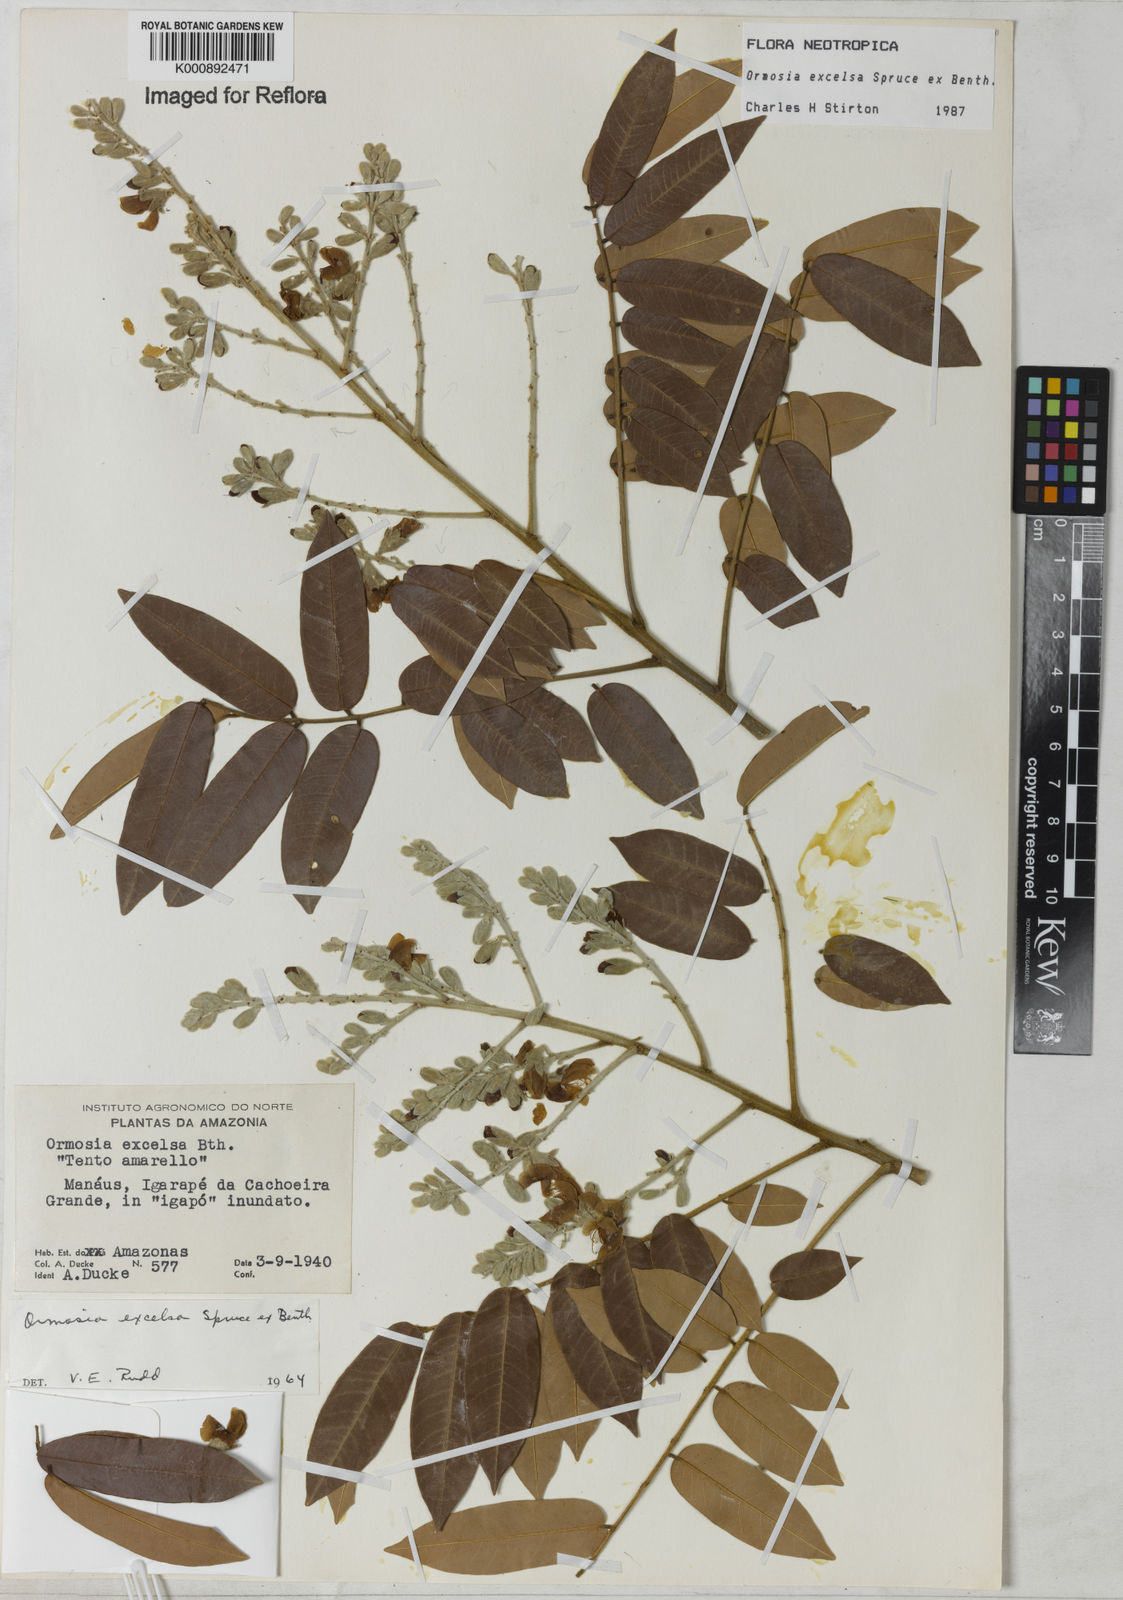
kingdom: Plantae
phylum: Tracheophyta
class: Magnoliopsida
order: Fabales
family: Fabaceae
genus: Ormosia
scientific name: Ormosia excelsa
